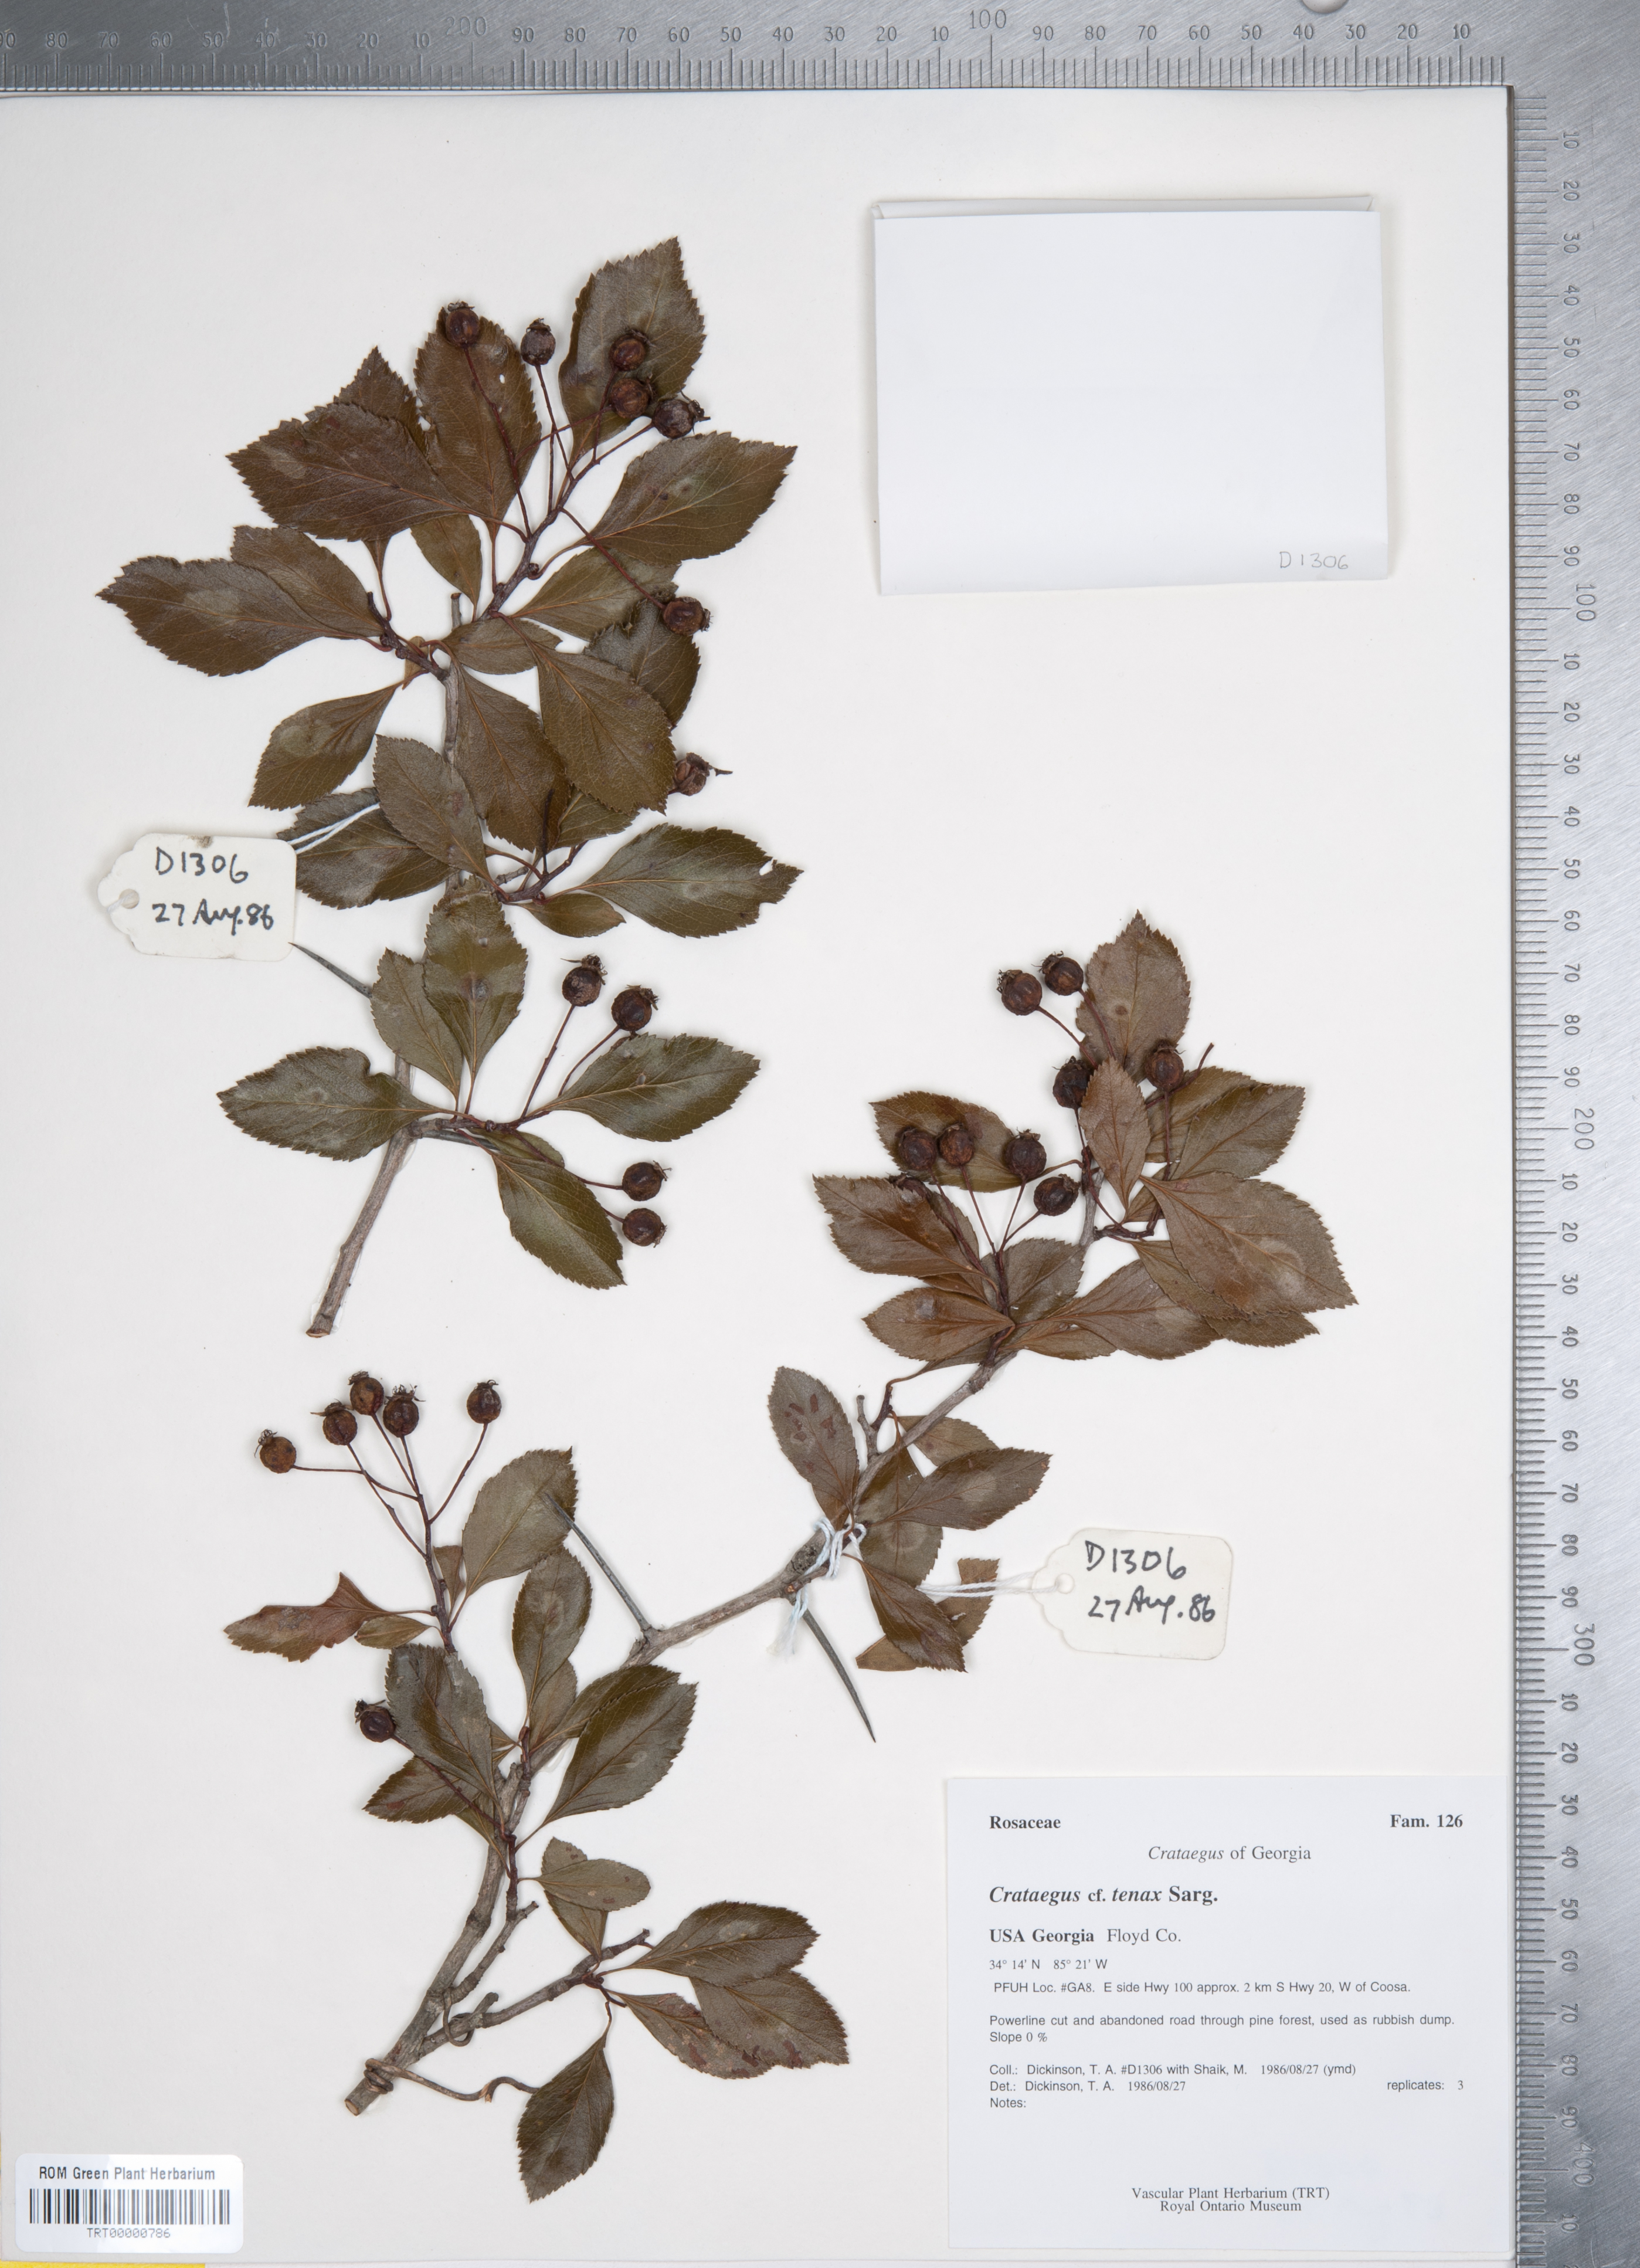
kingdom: Plantae
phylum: Tracheophyta
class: Magnoliopsida
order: Rosales
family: Rosaceae
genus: Crataegus
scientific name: Crataegus crus-galli
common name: Cockspurthorn
